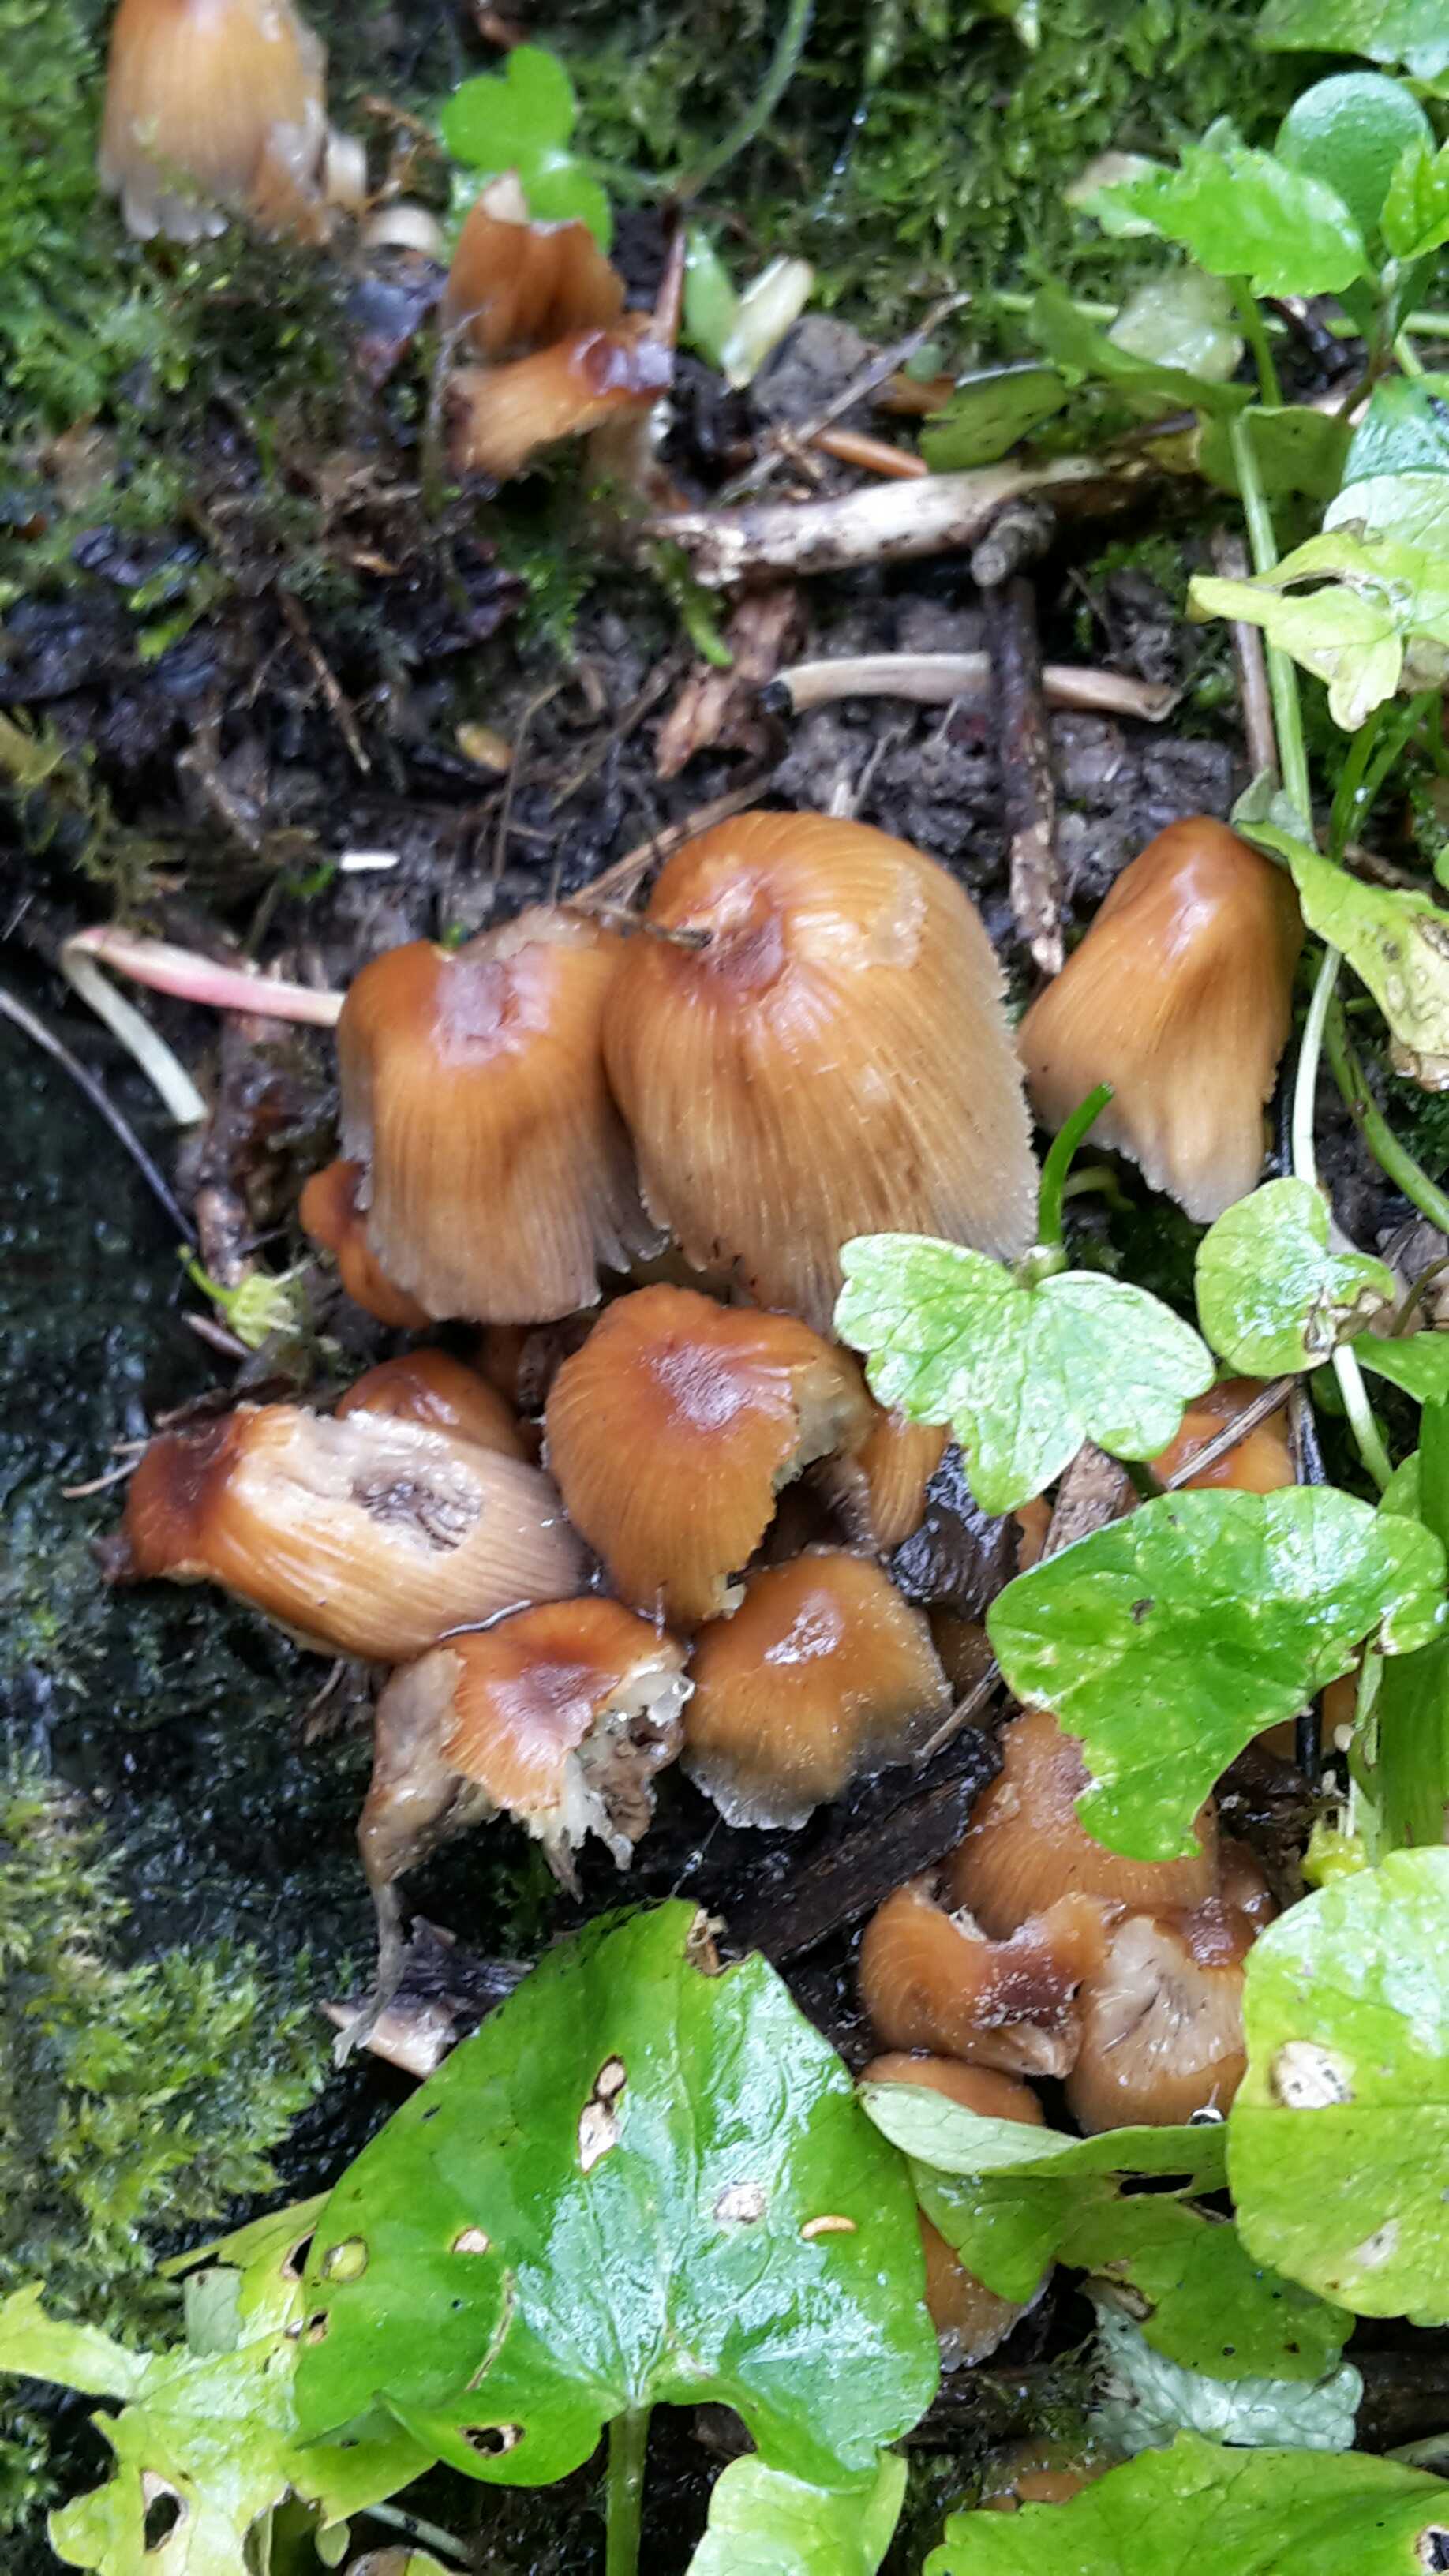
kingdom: Fungi
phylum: Basidiomycota
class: Agaricomycetes
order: Agaricales
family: Psathyrellaceae
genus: Coprinellus
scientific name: Coprinellus micaceus
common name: glimmer-blækhat
